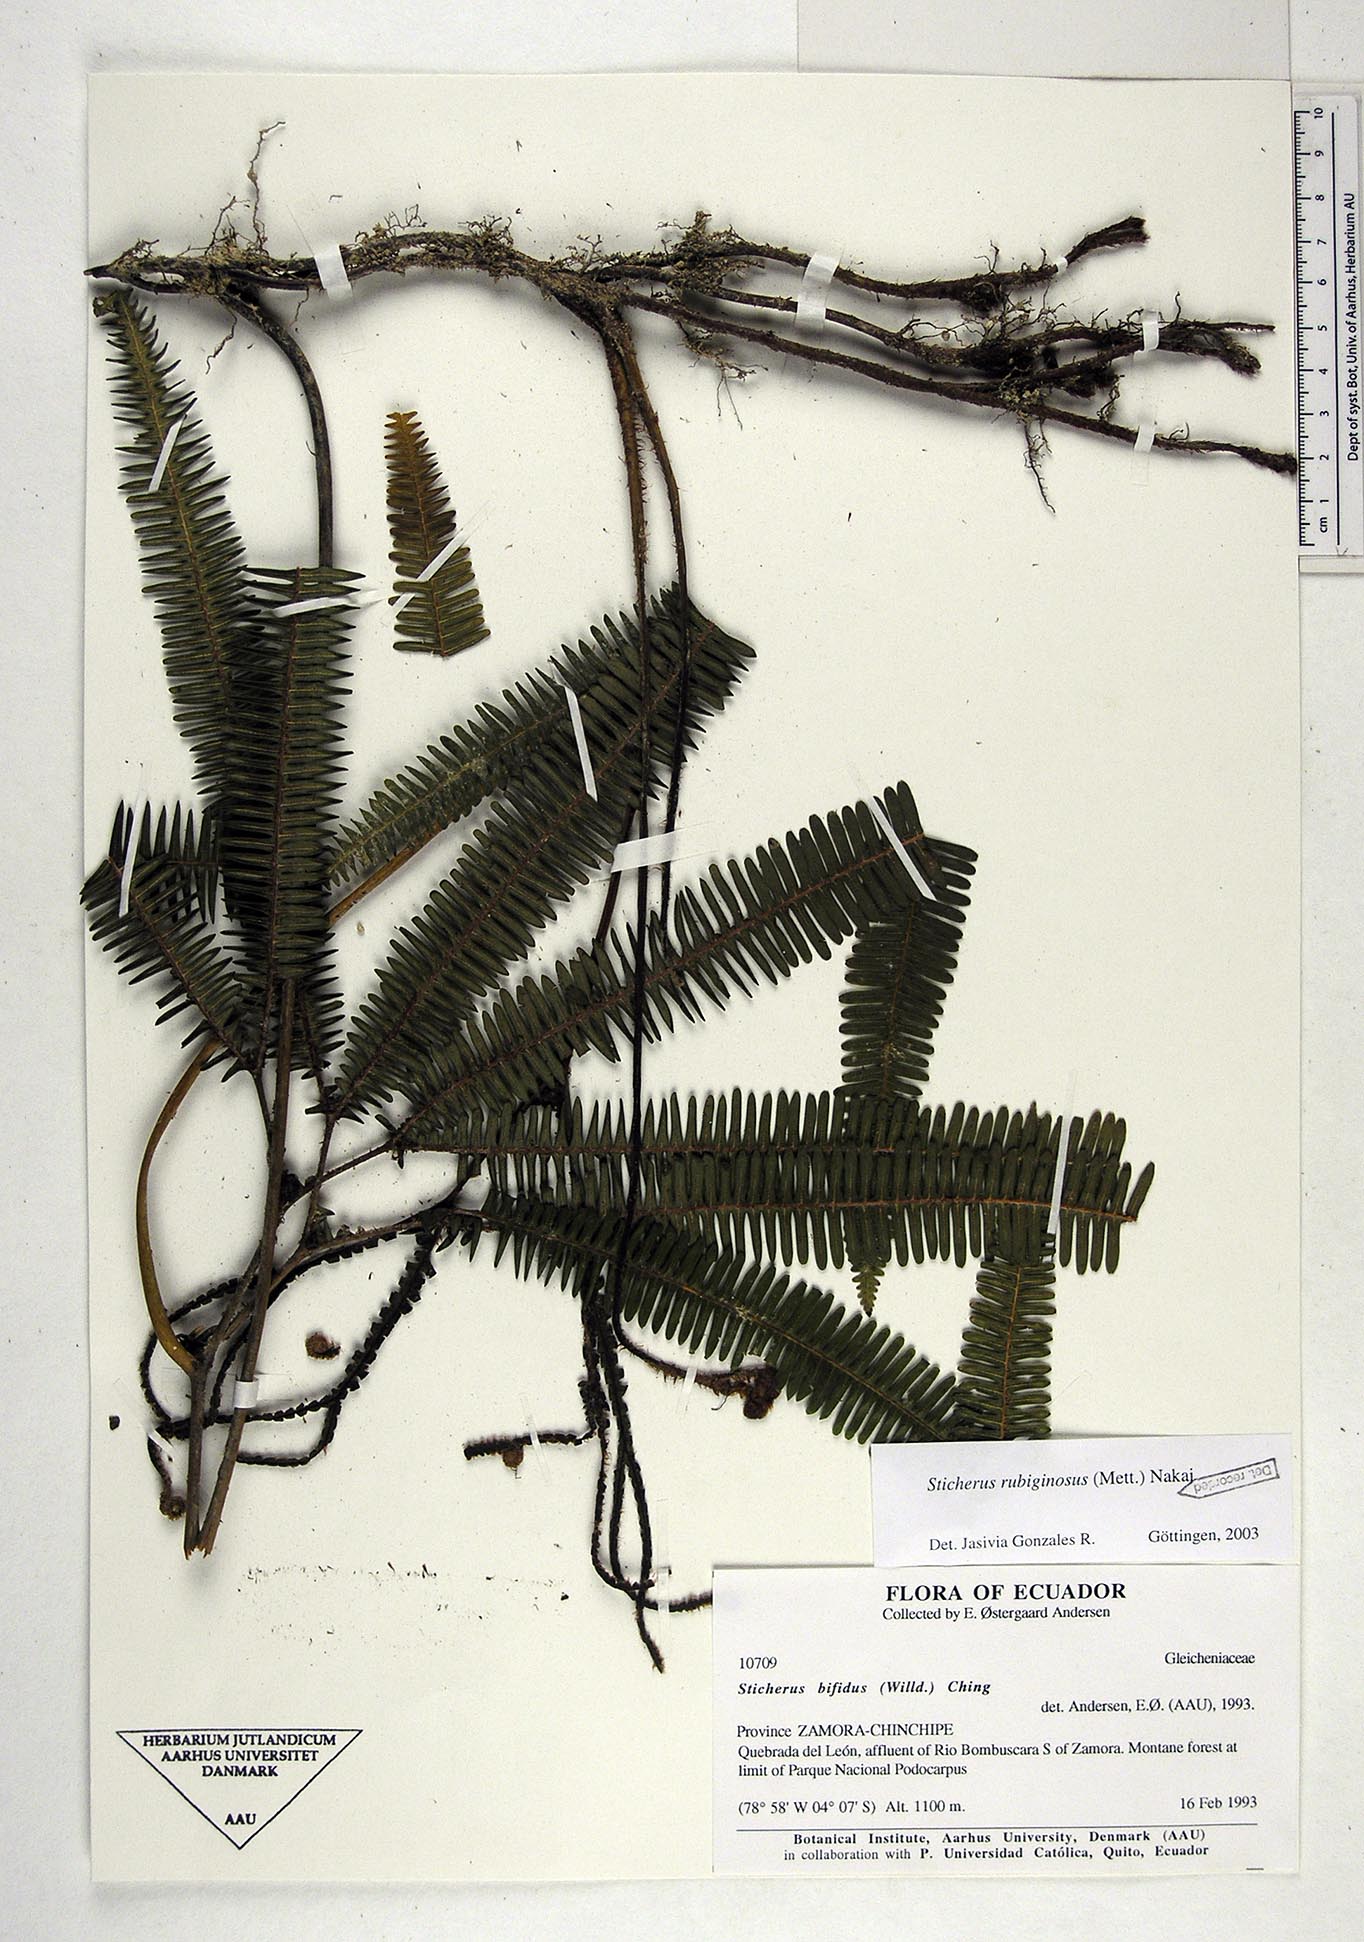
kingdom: Plantae
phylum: Tracheophyta
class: Polypodiopsida
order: Gleicheniales
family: Gleicheniaceae
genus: Sticherus
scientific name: Sticherus rubiginosus
